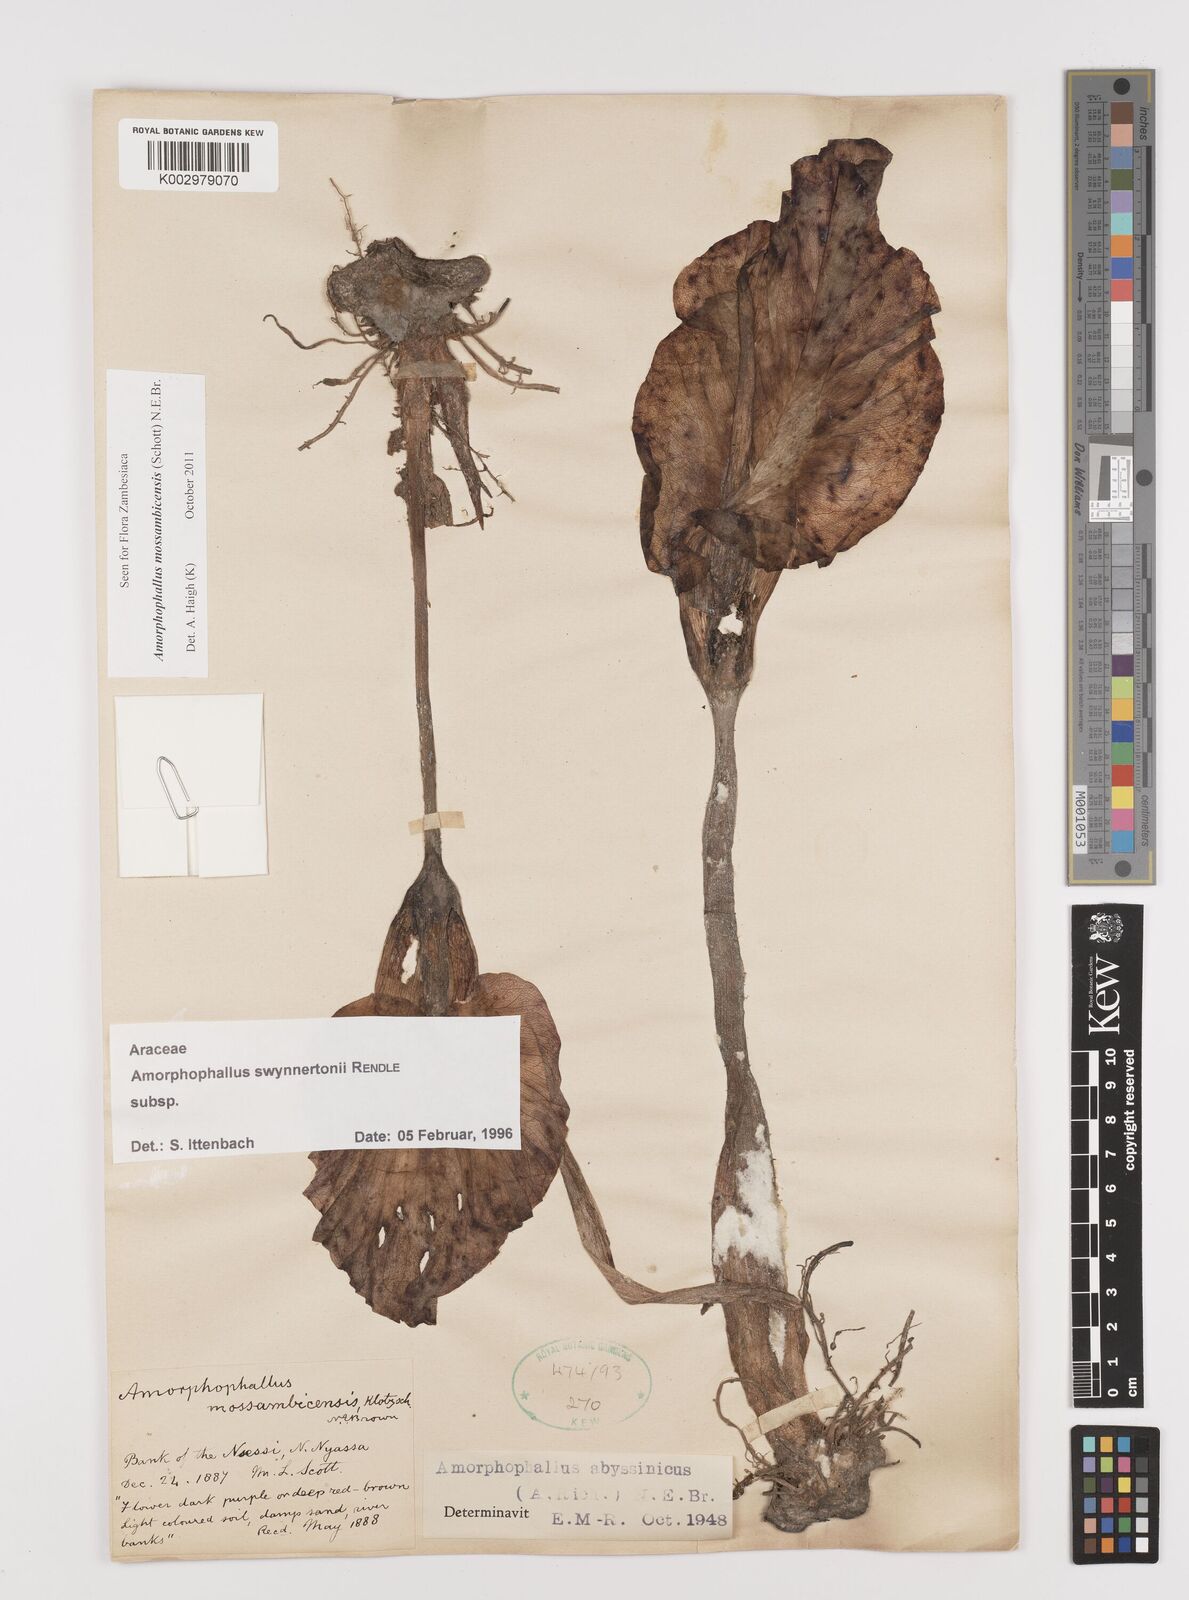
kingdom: Plantae
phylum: Tracheophyta
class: Liliopsida
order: Alismatales
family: Araceae
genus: Amorphophallus
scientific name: Amorphophallus mossambicensis
